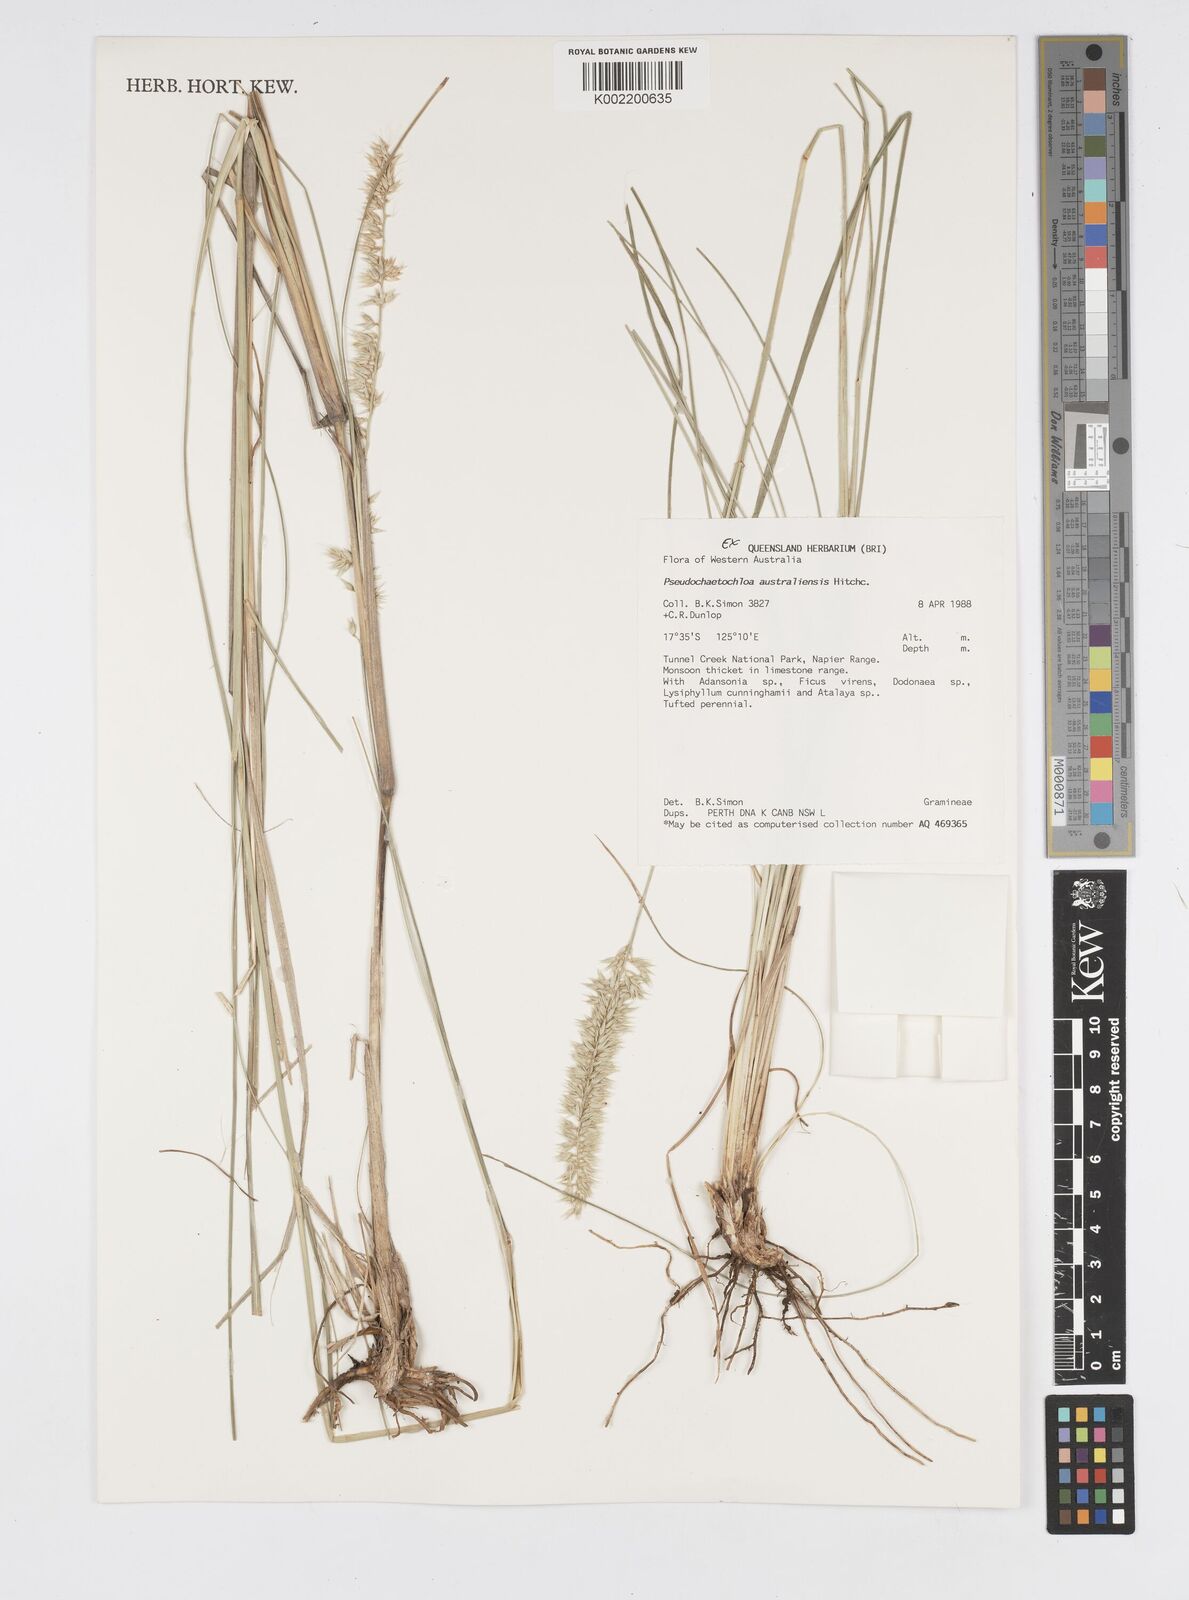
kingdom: Plantae
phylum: Tracheophyta
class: Liliopsida
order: Poales
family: Poaceae
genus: Cenchrus
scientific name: Cenchrus arnhemicus
